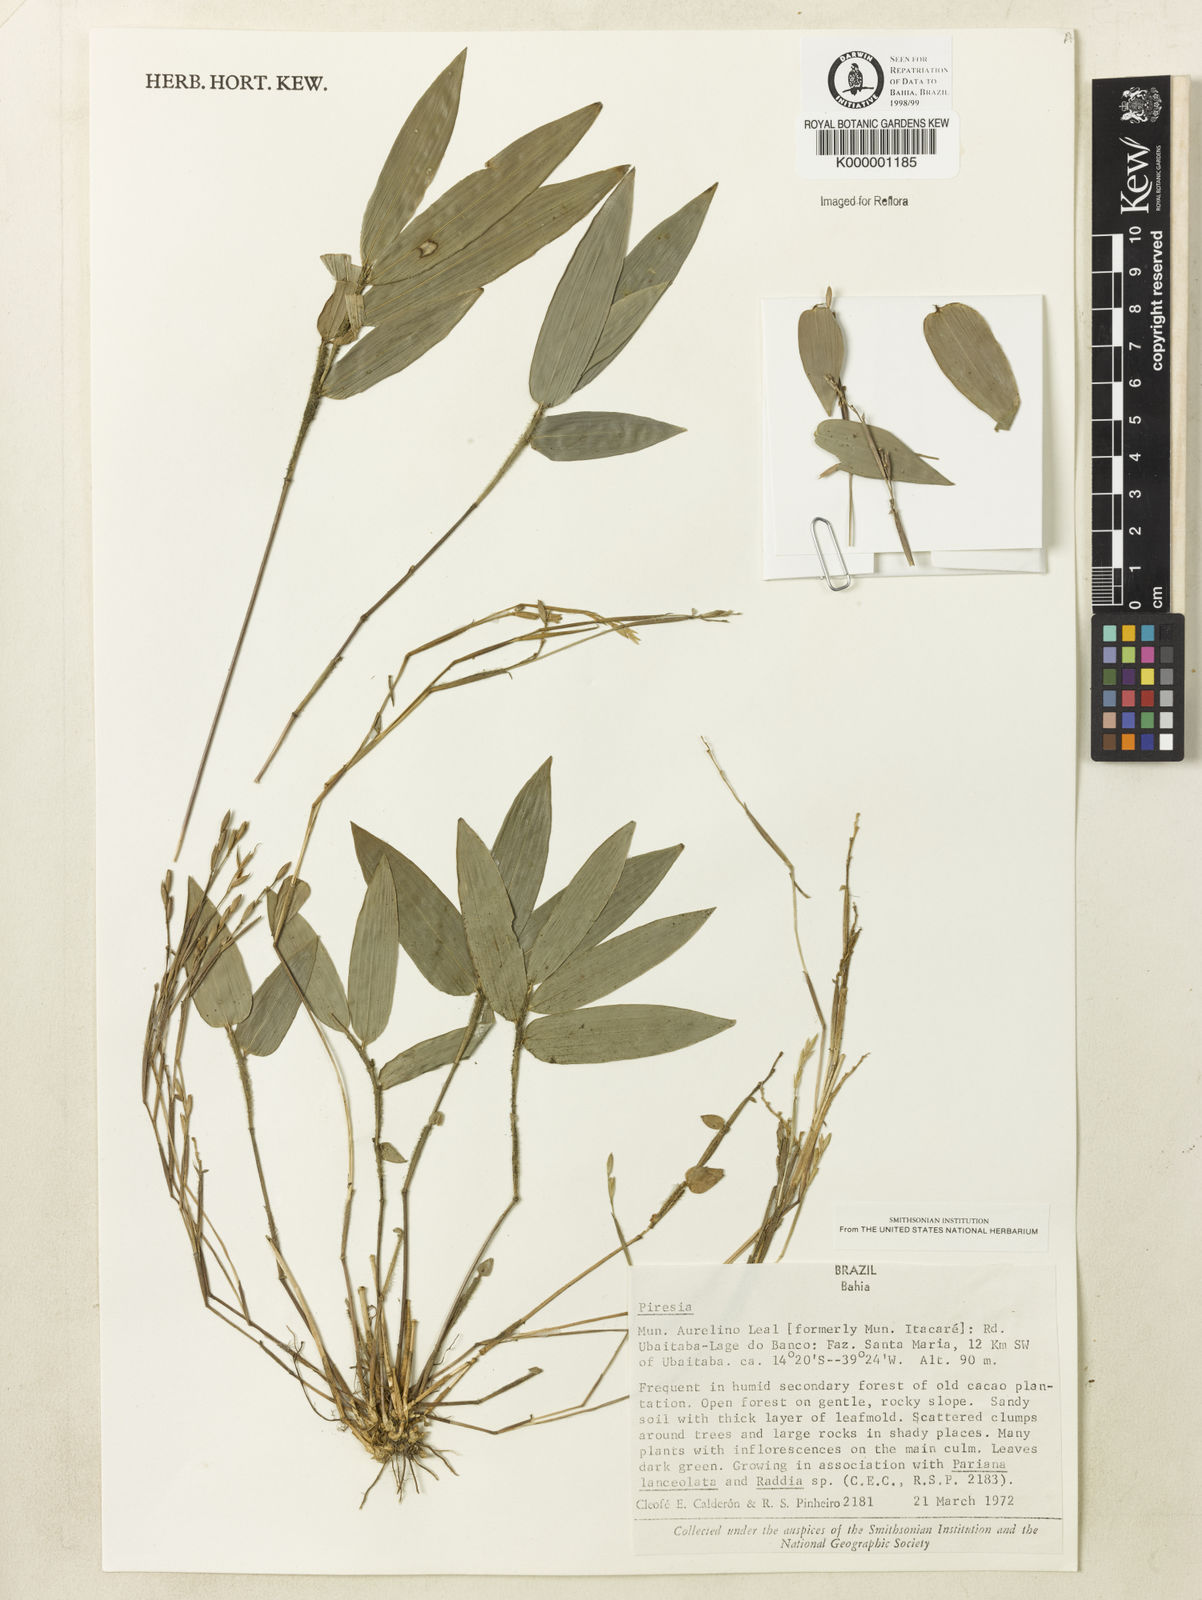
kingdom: Plantae
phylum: Tracheophyta
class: Liliopsida
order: Poales
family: Poaceae
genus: Piresia
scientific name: Piresia
